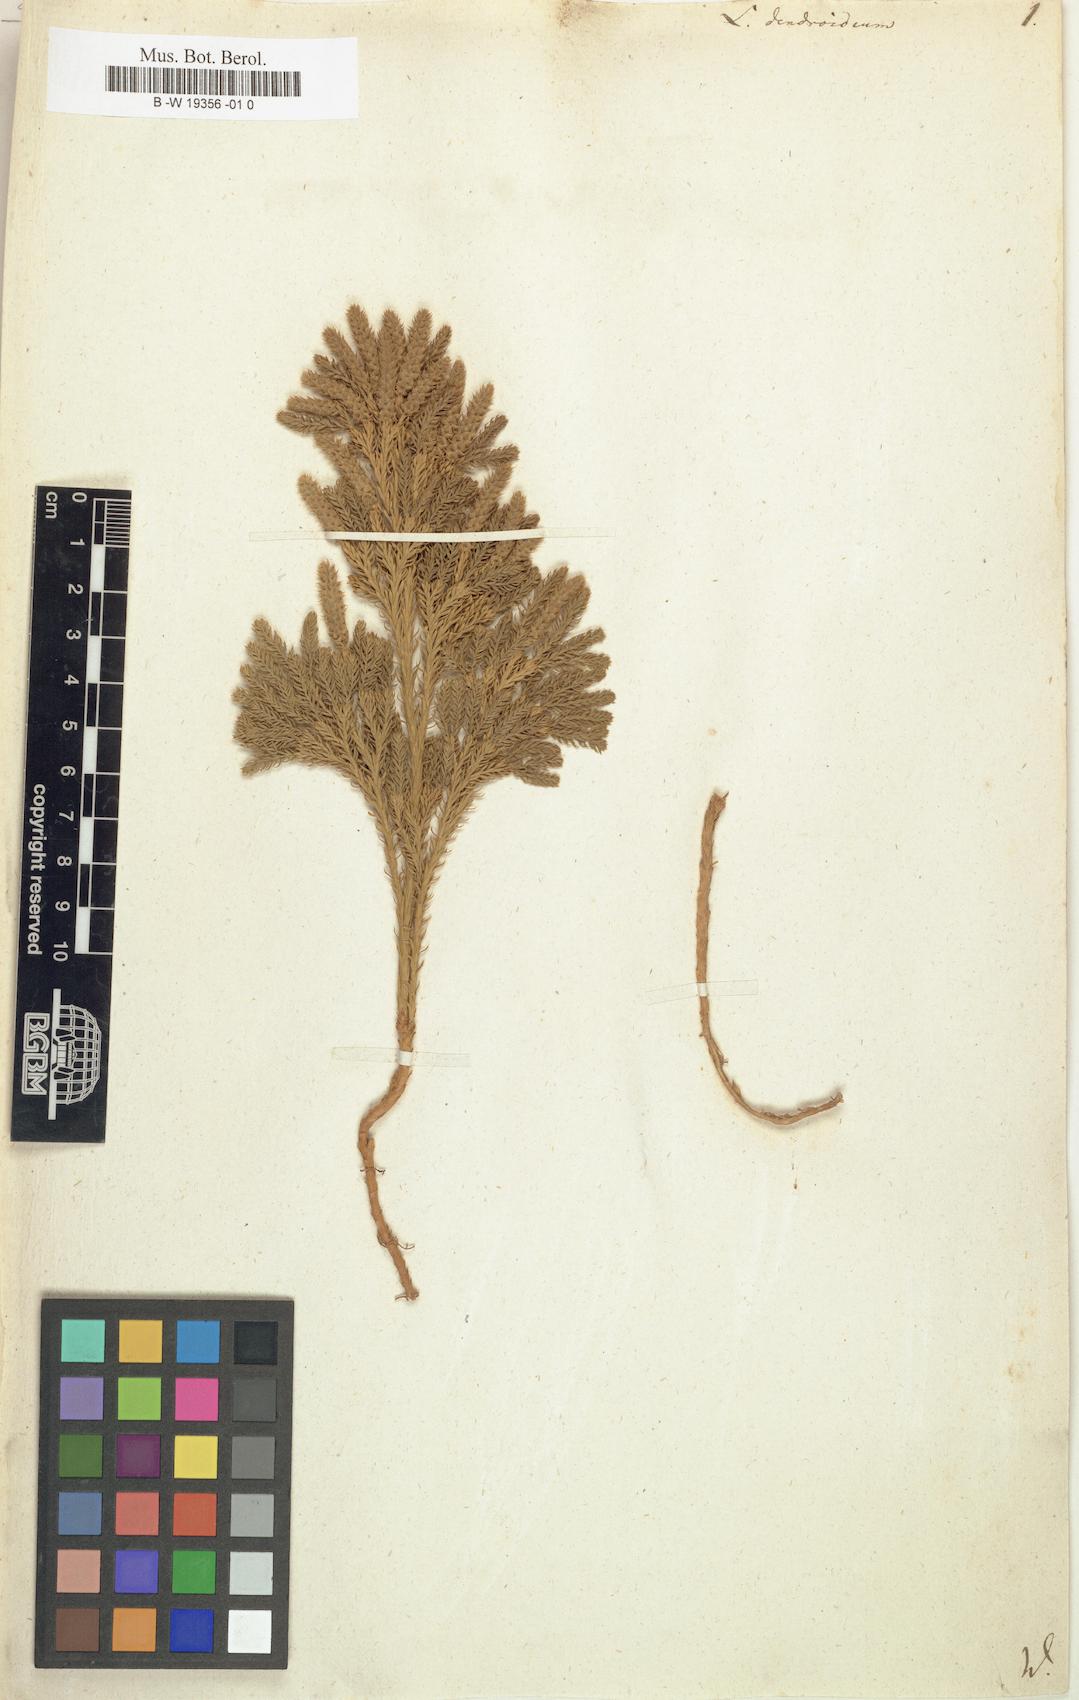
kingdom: Plantae
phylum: Tracheophyta
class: Lycopodiopsida
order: Lycopodiales
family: Lycopodiaceae
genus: Dendrolycopodium
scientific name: Dendrolycopodium dendroideum
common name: Northern tree-clubmoss
